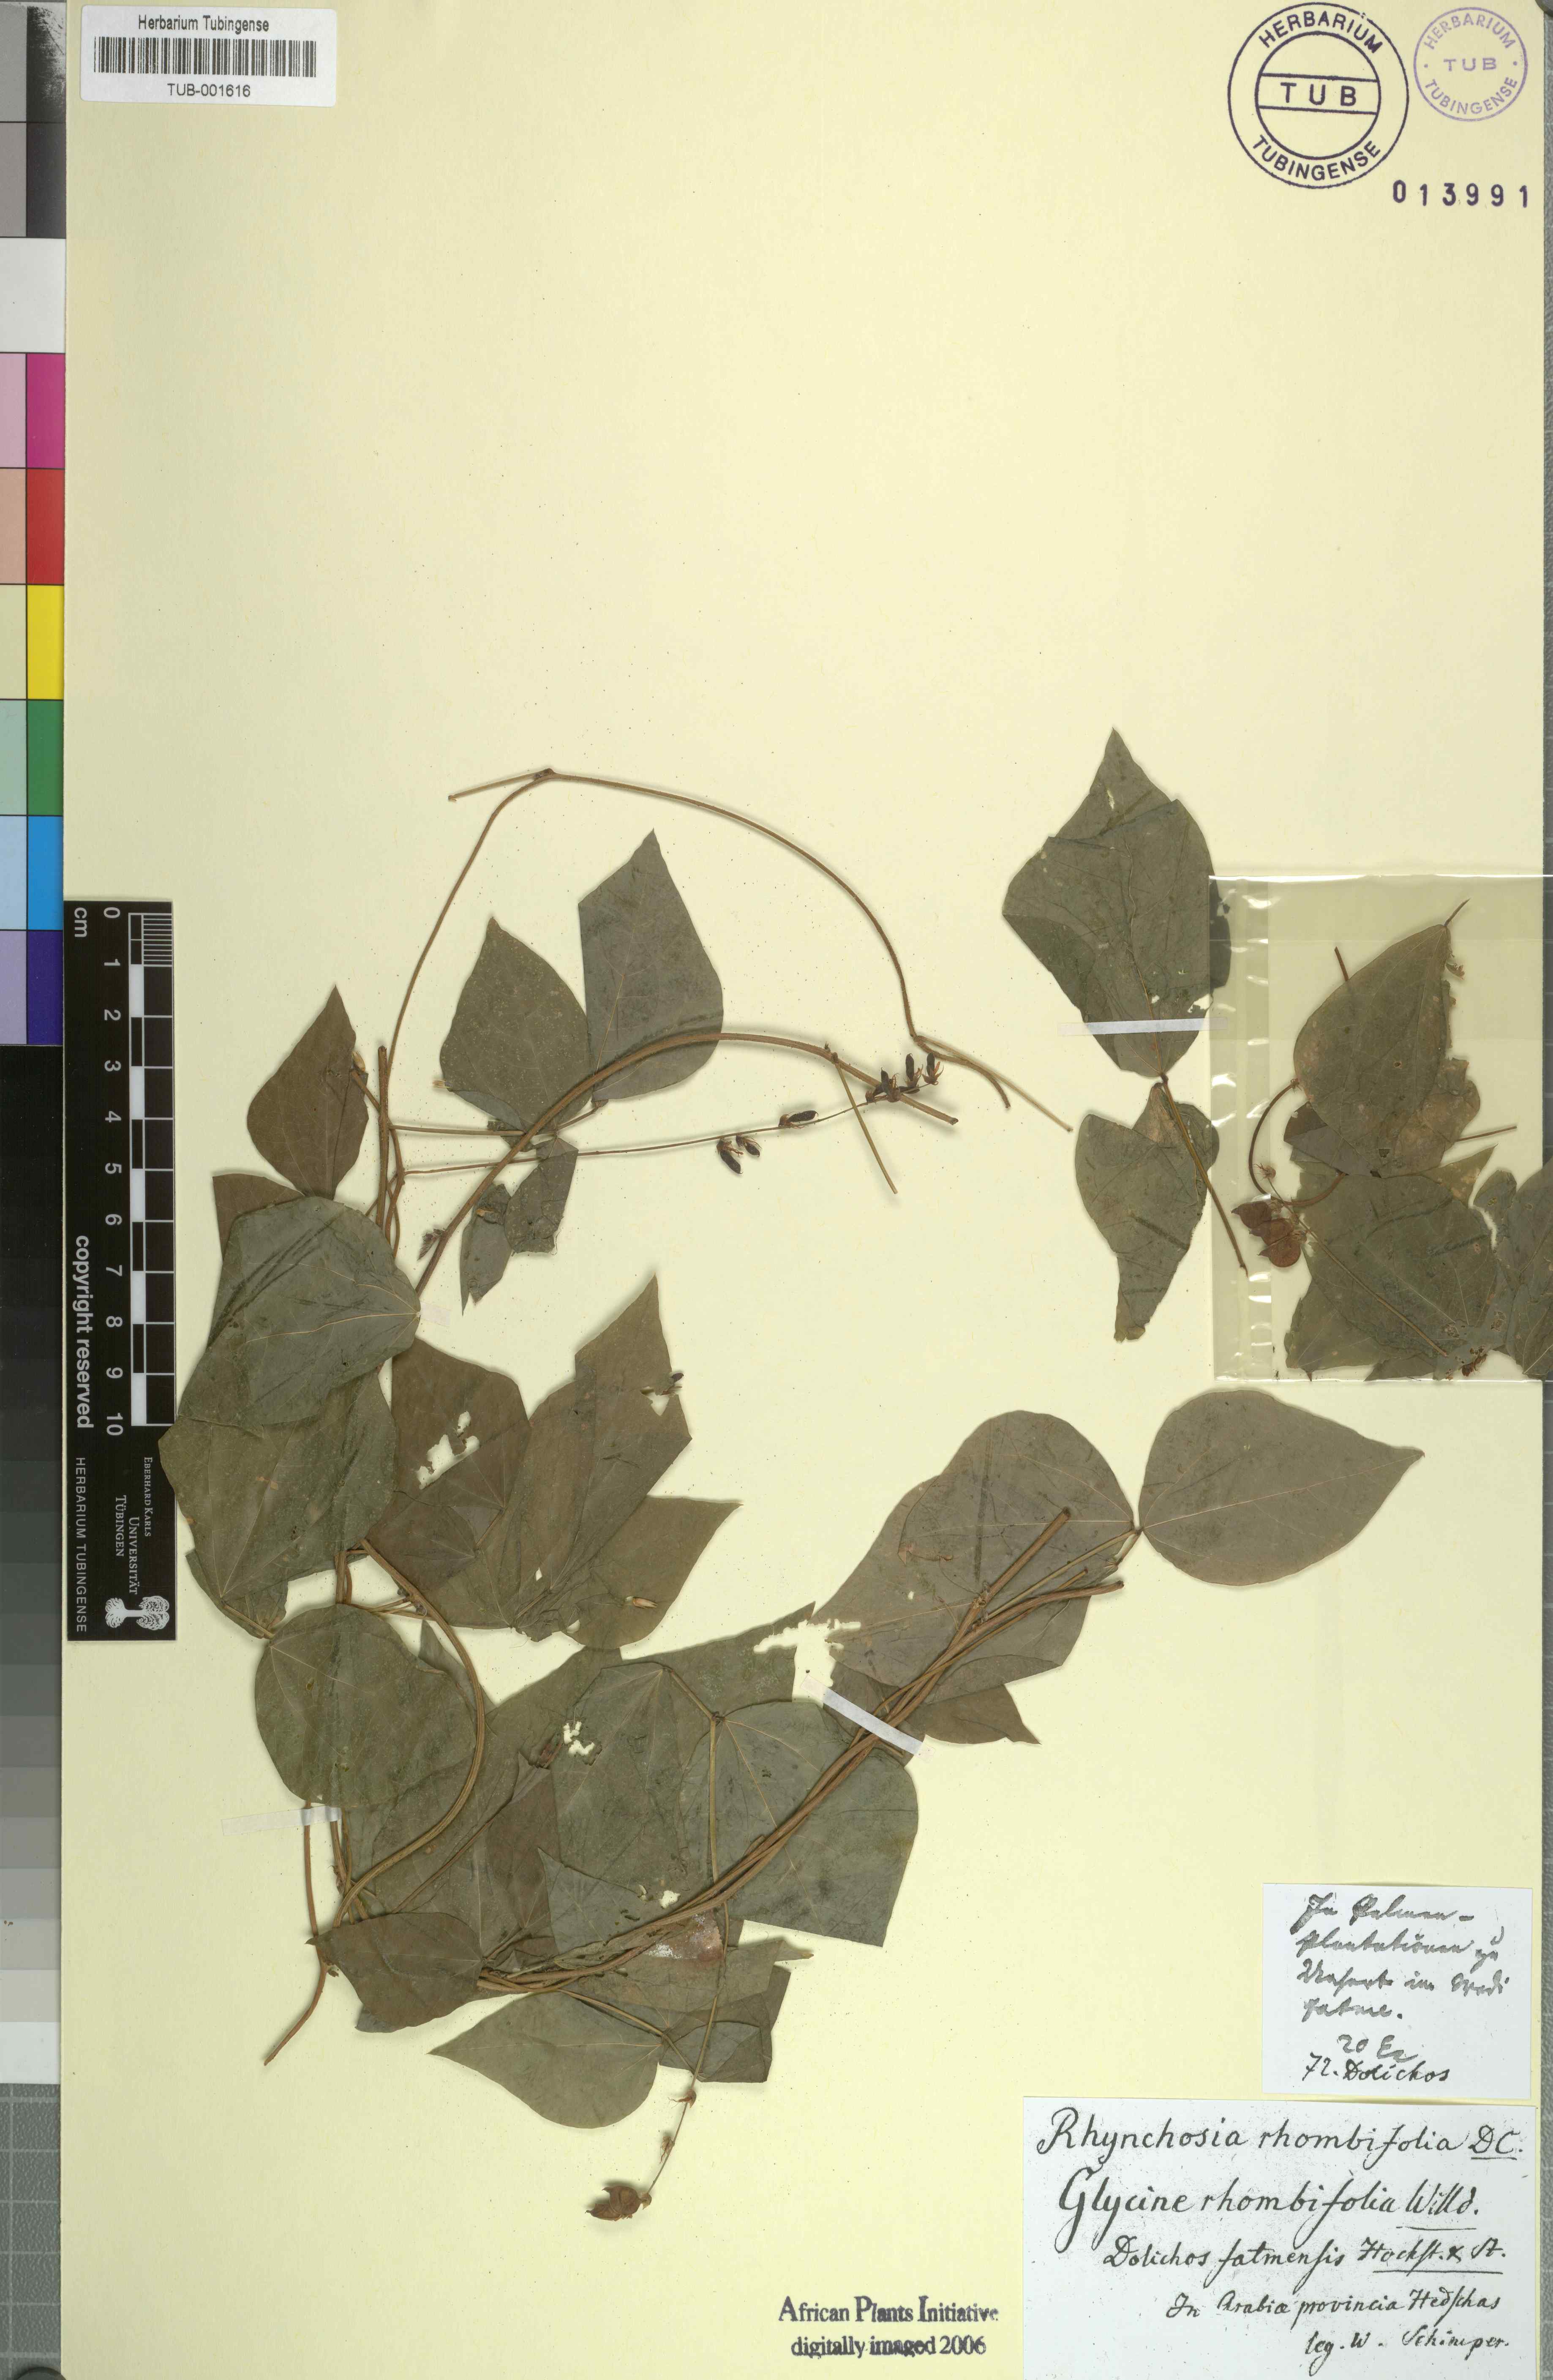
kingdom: Plantae
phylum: Tracheophyta
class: Magnoliopsida
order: Fabales
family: Fabaceae
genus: Rhynchosia
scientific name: Rhynchosia minima
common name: Least snoutbean
